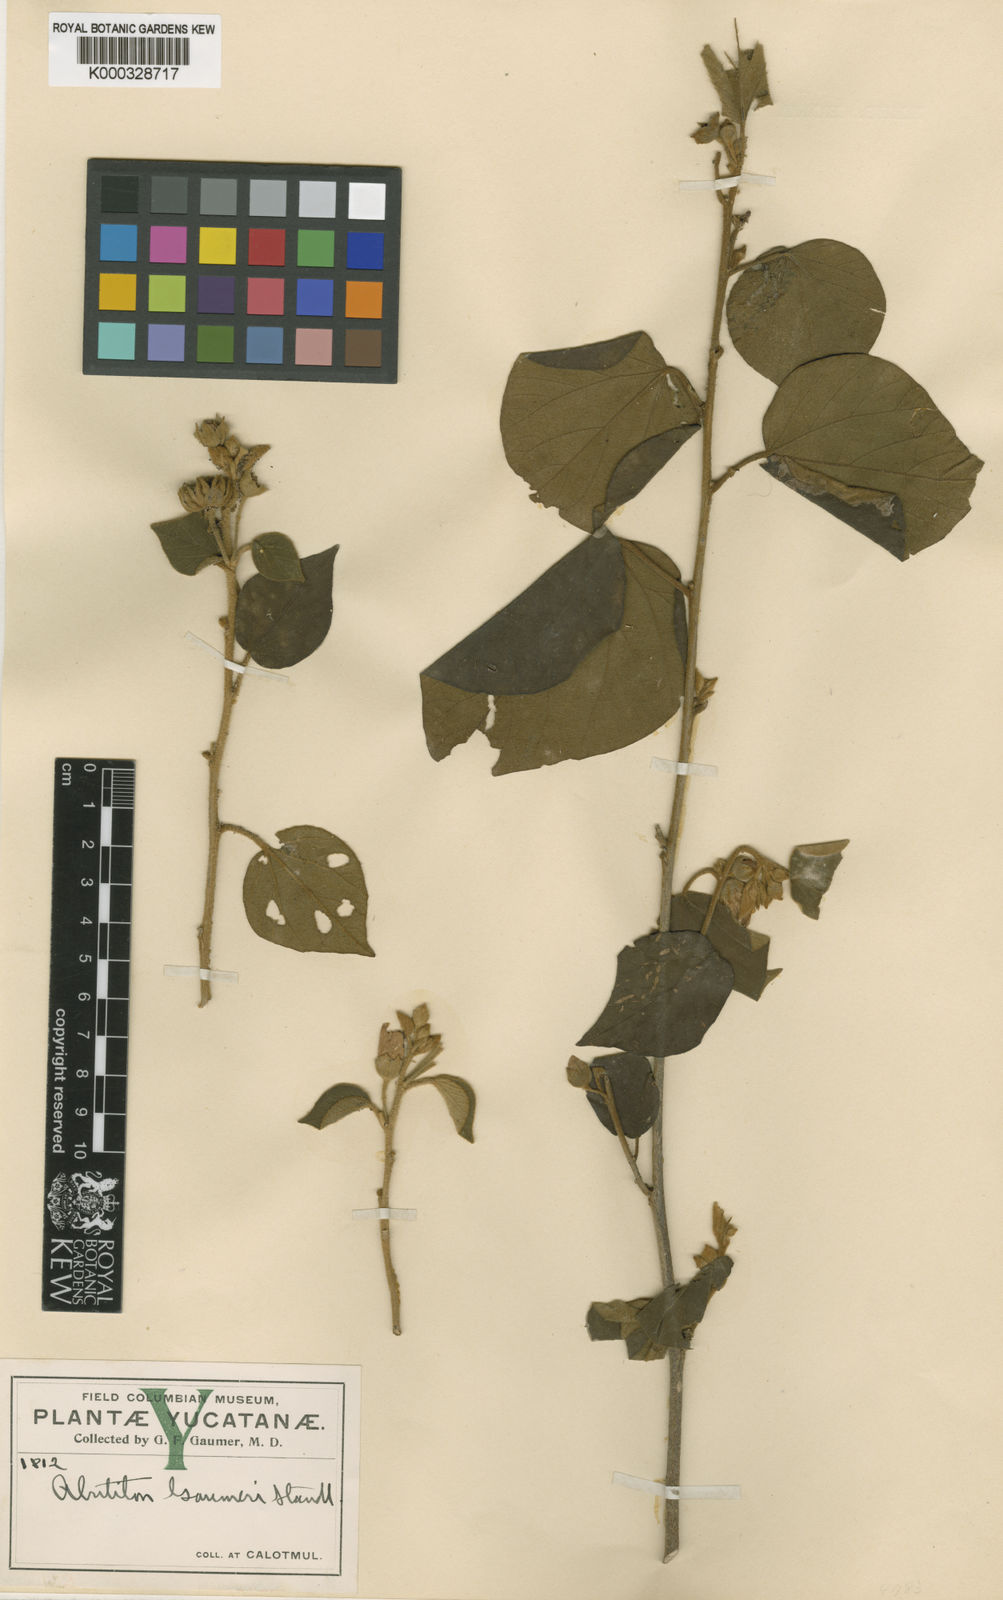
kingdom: Plantae
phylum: Tracheophyta
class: Magnoliopsida
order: Malvales
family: Malvaceae
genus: Bakeridesia
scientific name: Bakeridesia gaumeri
